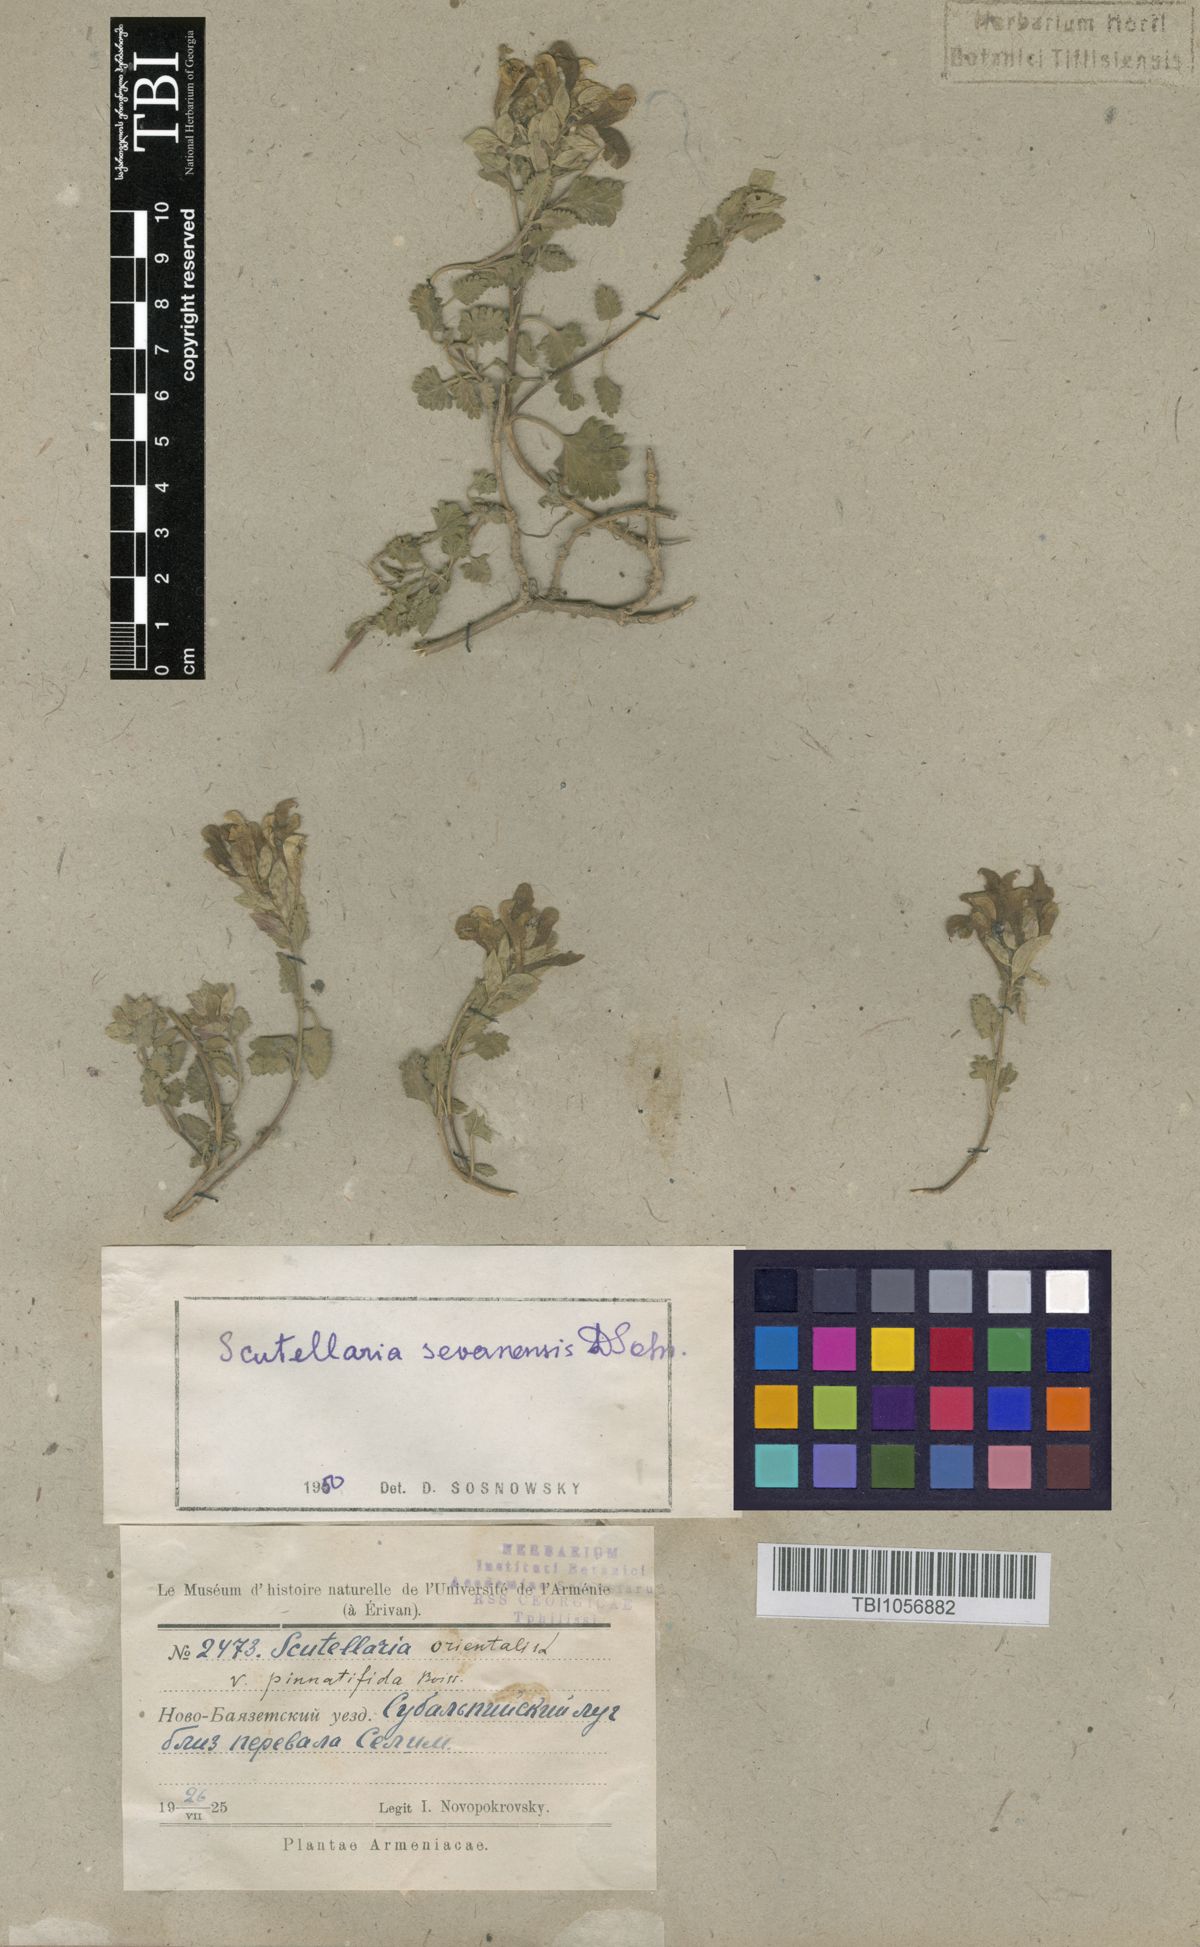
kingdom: Plantae
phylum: Tracheophyta
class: Magnoliopsida
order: Lamiales
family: Lamiaceae
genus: Scutellaria
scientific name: Scutellaria sevanensis
